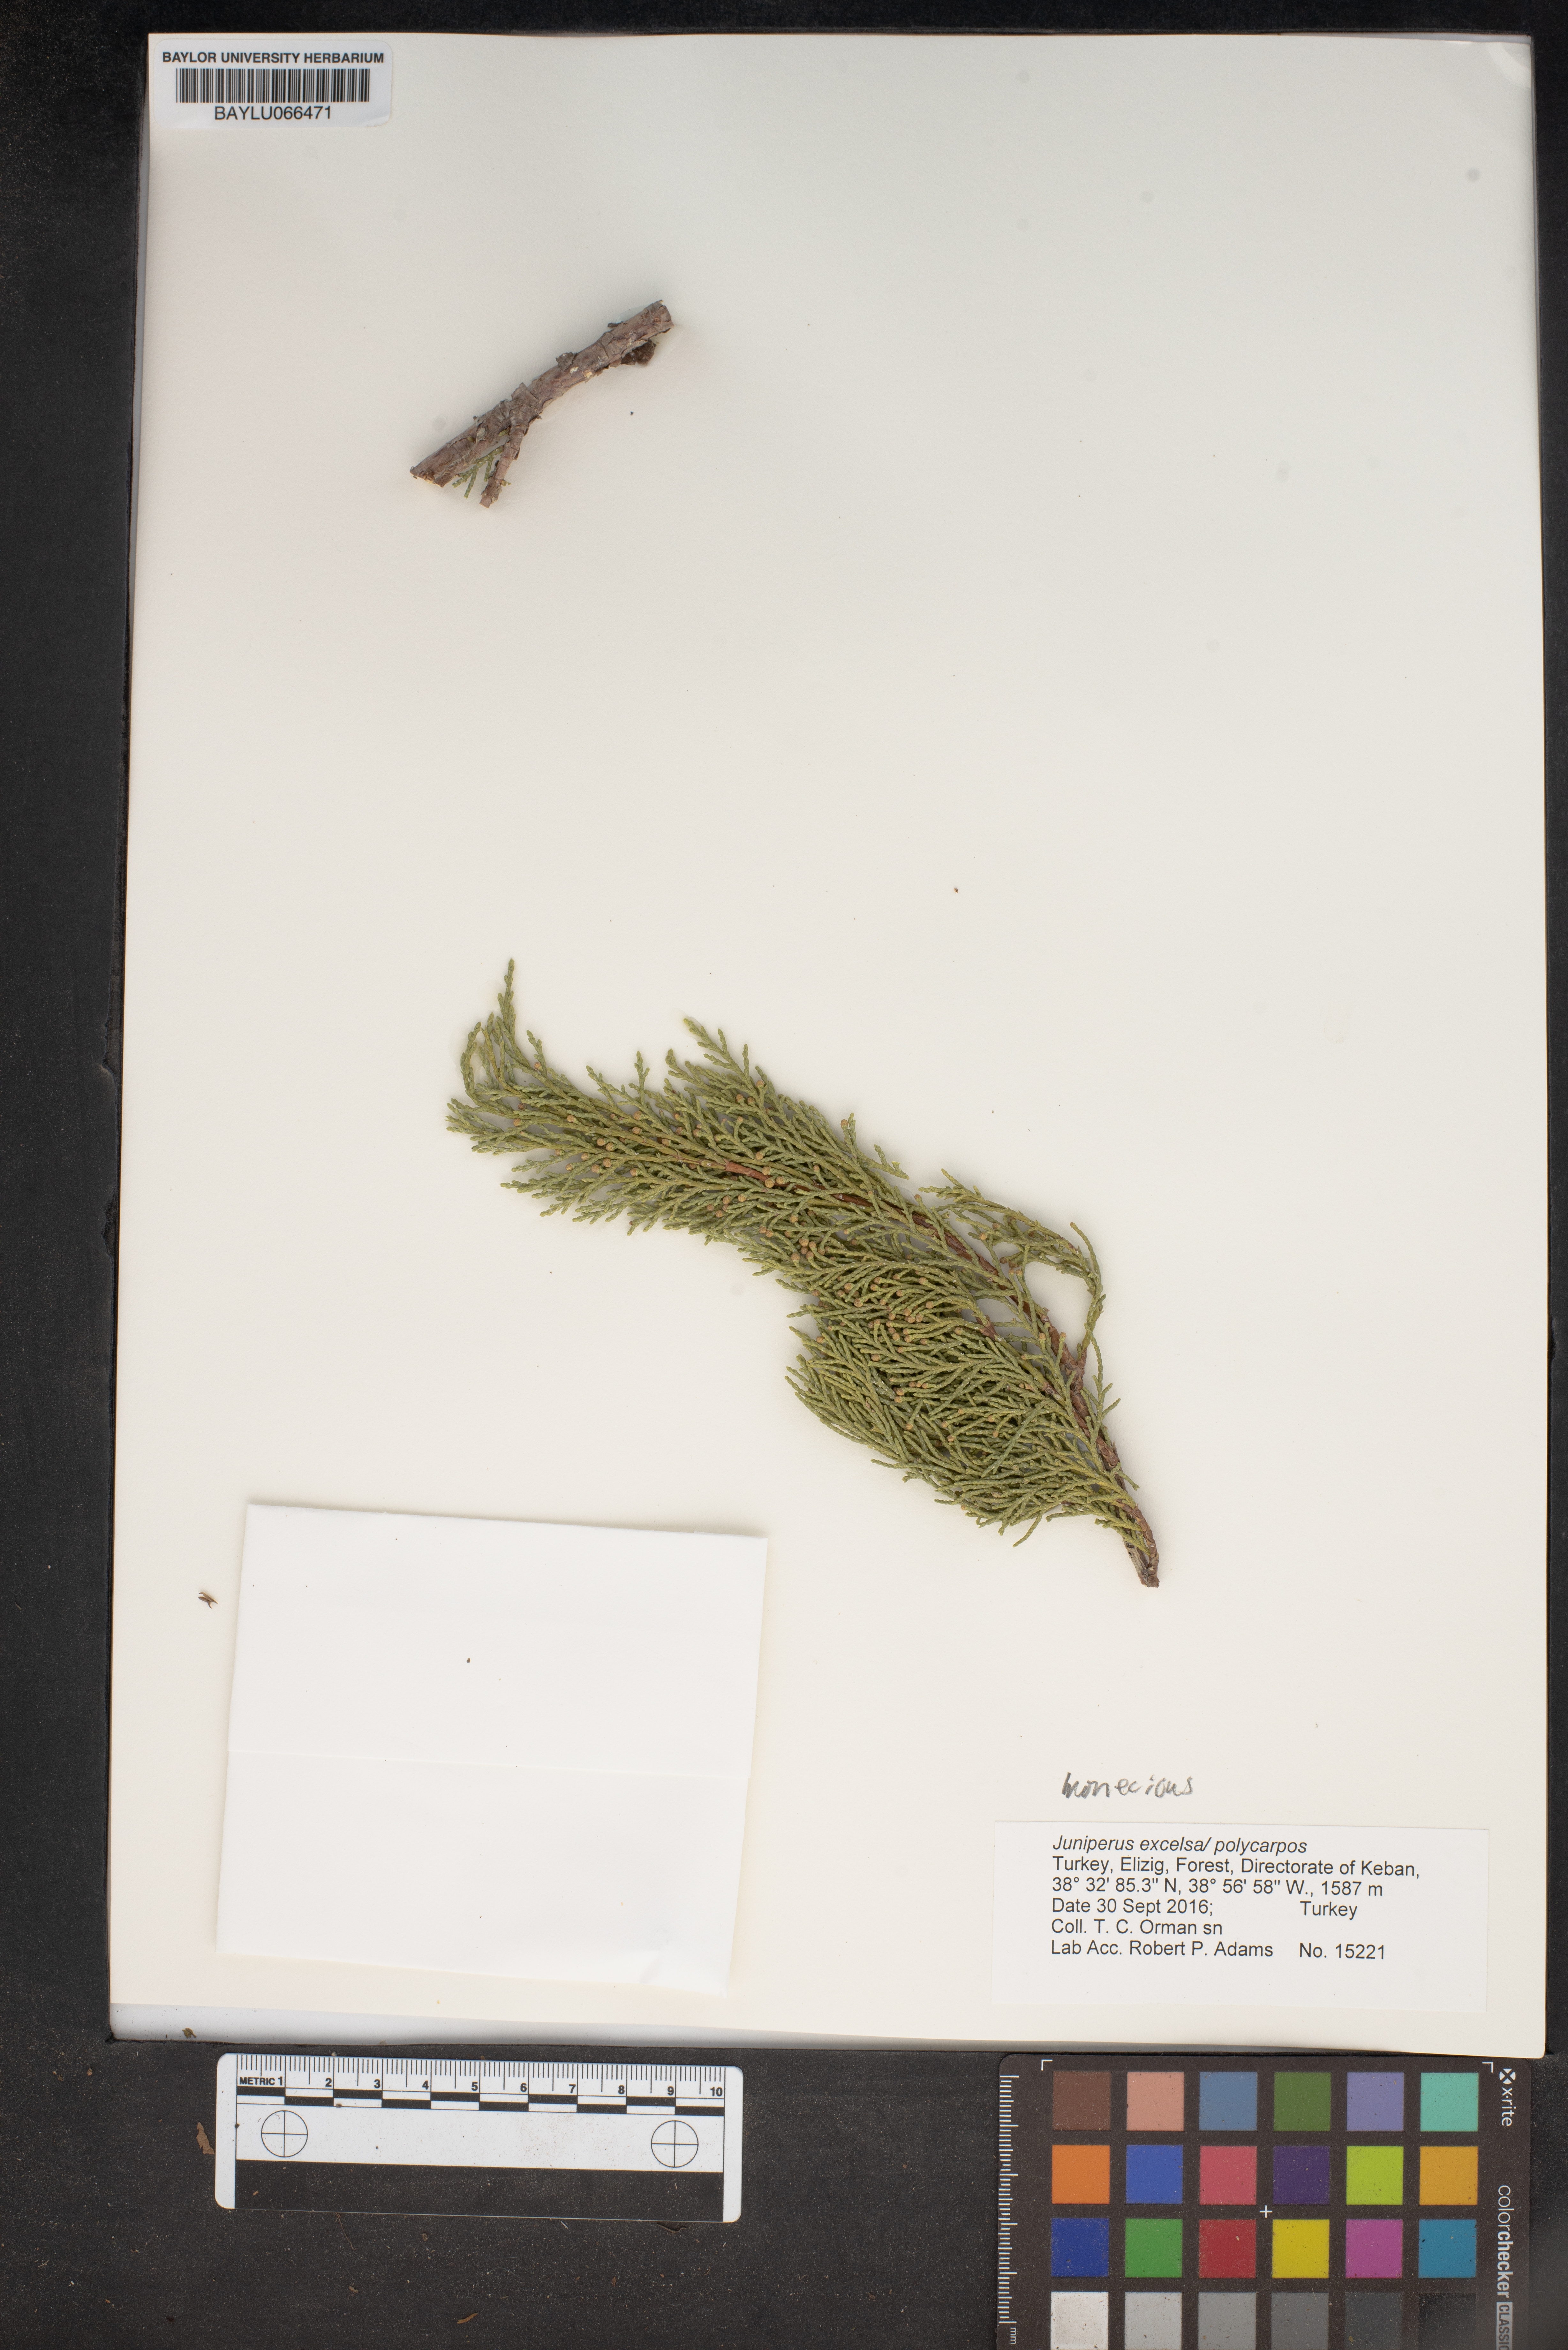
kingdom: Plantae
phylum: Tracheophyta
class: Pinopsida
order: Pinales
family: Cupressaceae
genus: Juniperus
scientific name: Juniperus excelsa
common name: Crimean juniper
